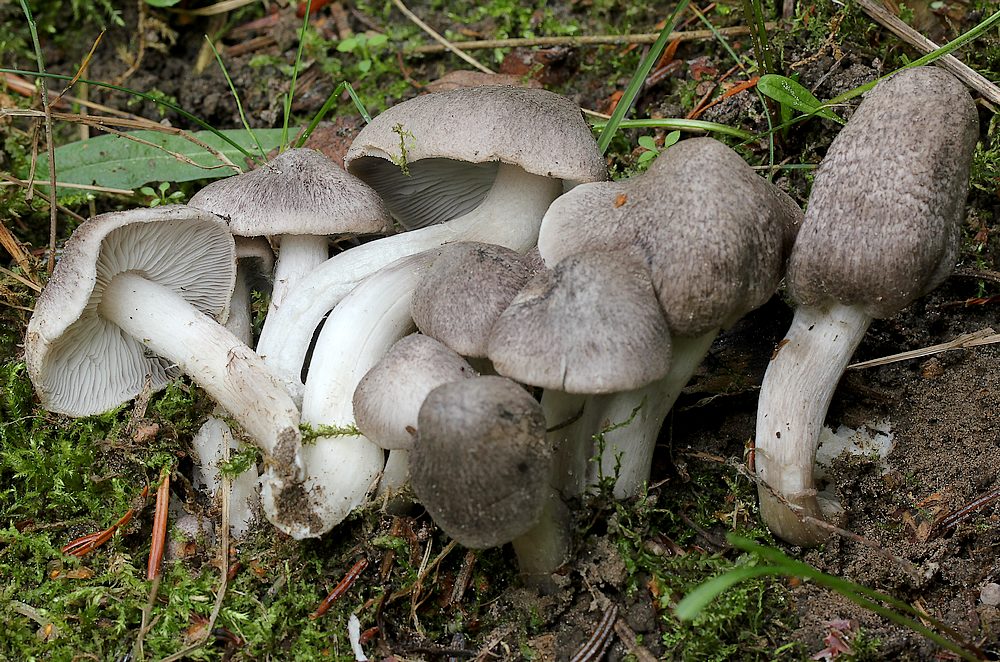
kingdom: Fungi
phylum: Basidiomycota
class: Agaricomycetes
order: Agaricales
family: Tricholomataceae
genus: Tricholoma
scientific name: Tricholoma argyraceum
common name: slør-ridderhat
